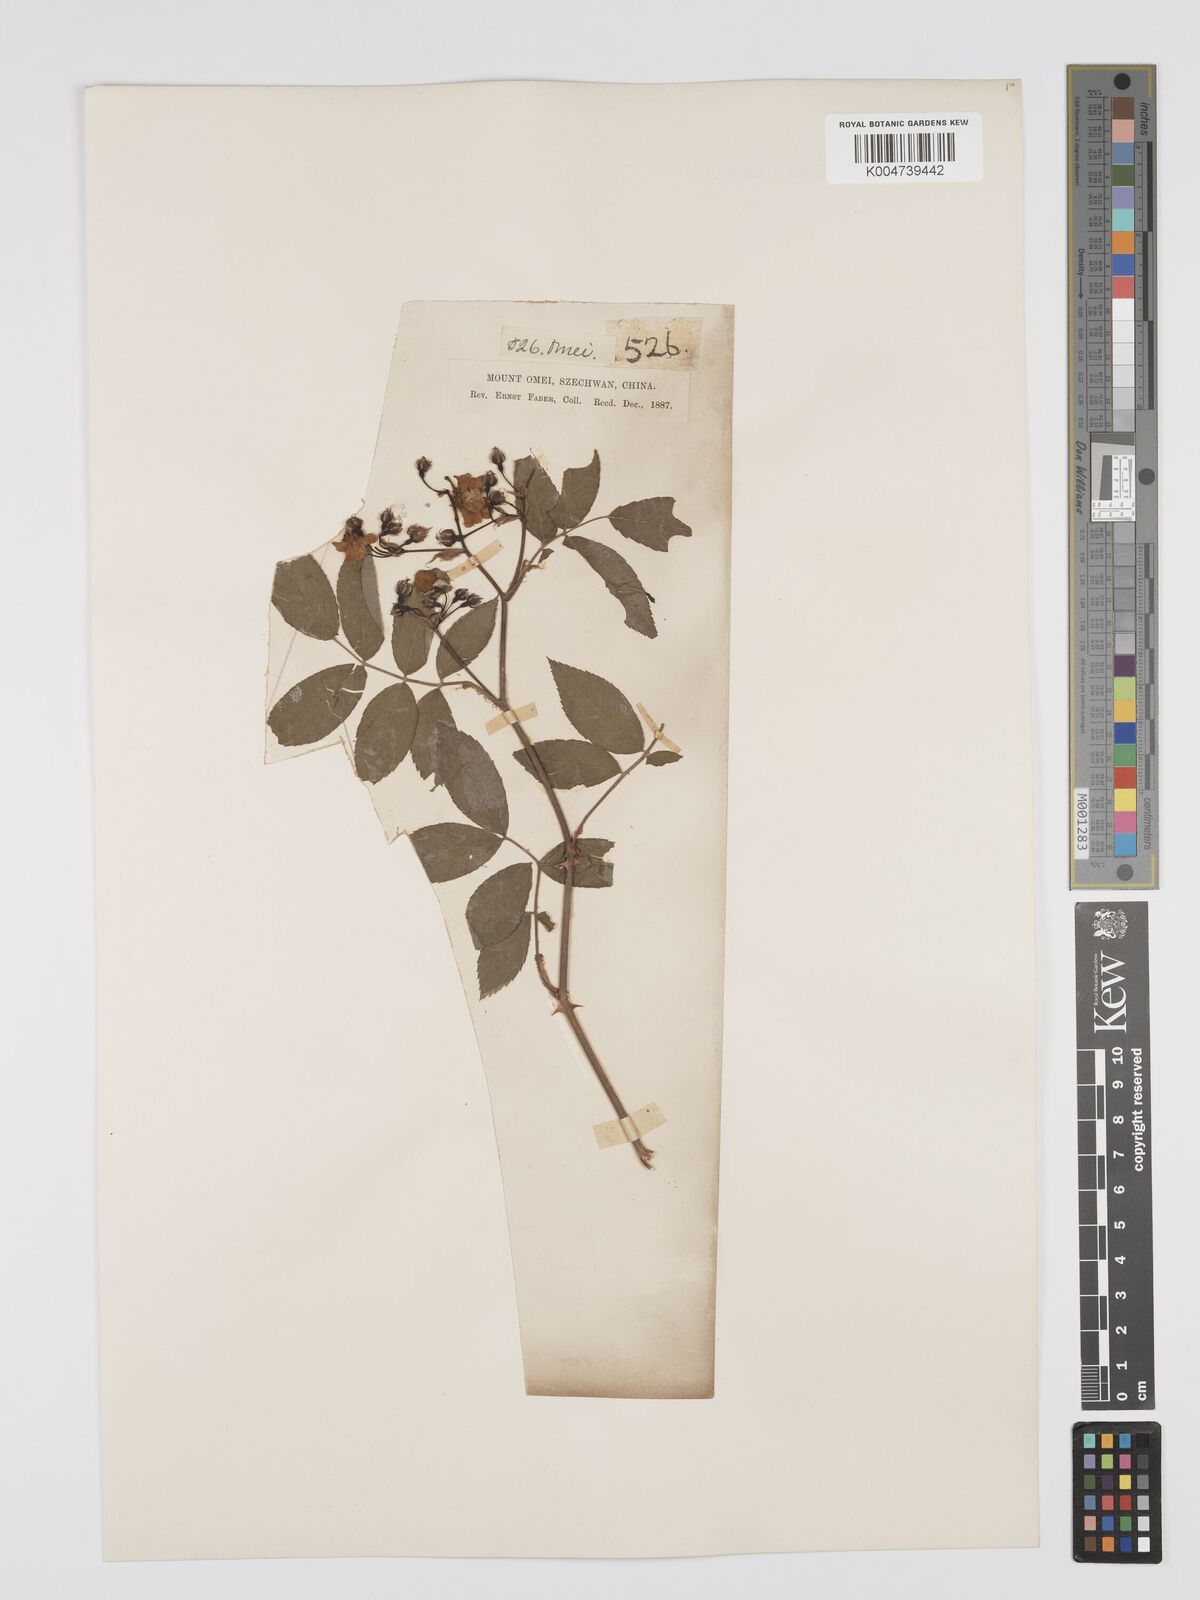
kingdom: Plantae
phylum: Tracheophyta
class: Magnoliopsida
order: Rosales
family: Rosaceae
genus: Rosa
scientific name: Rosa
